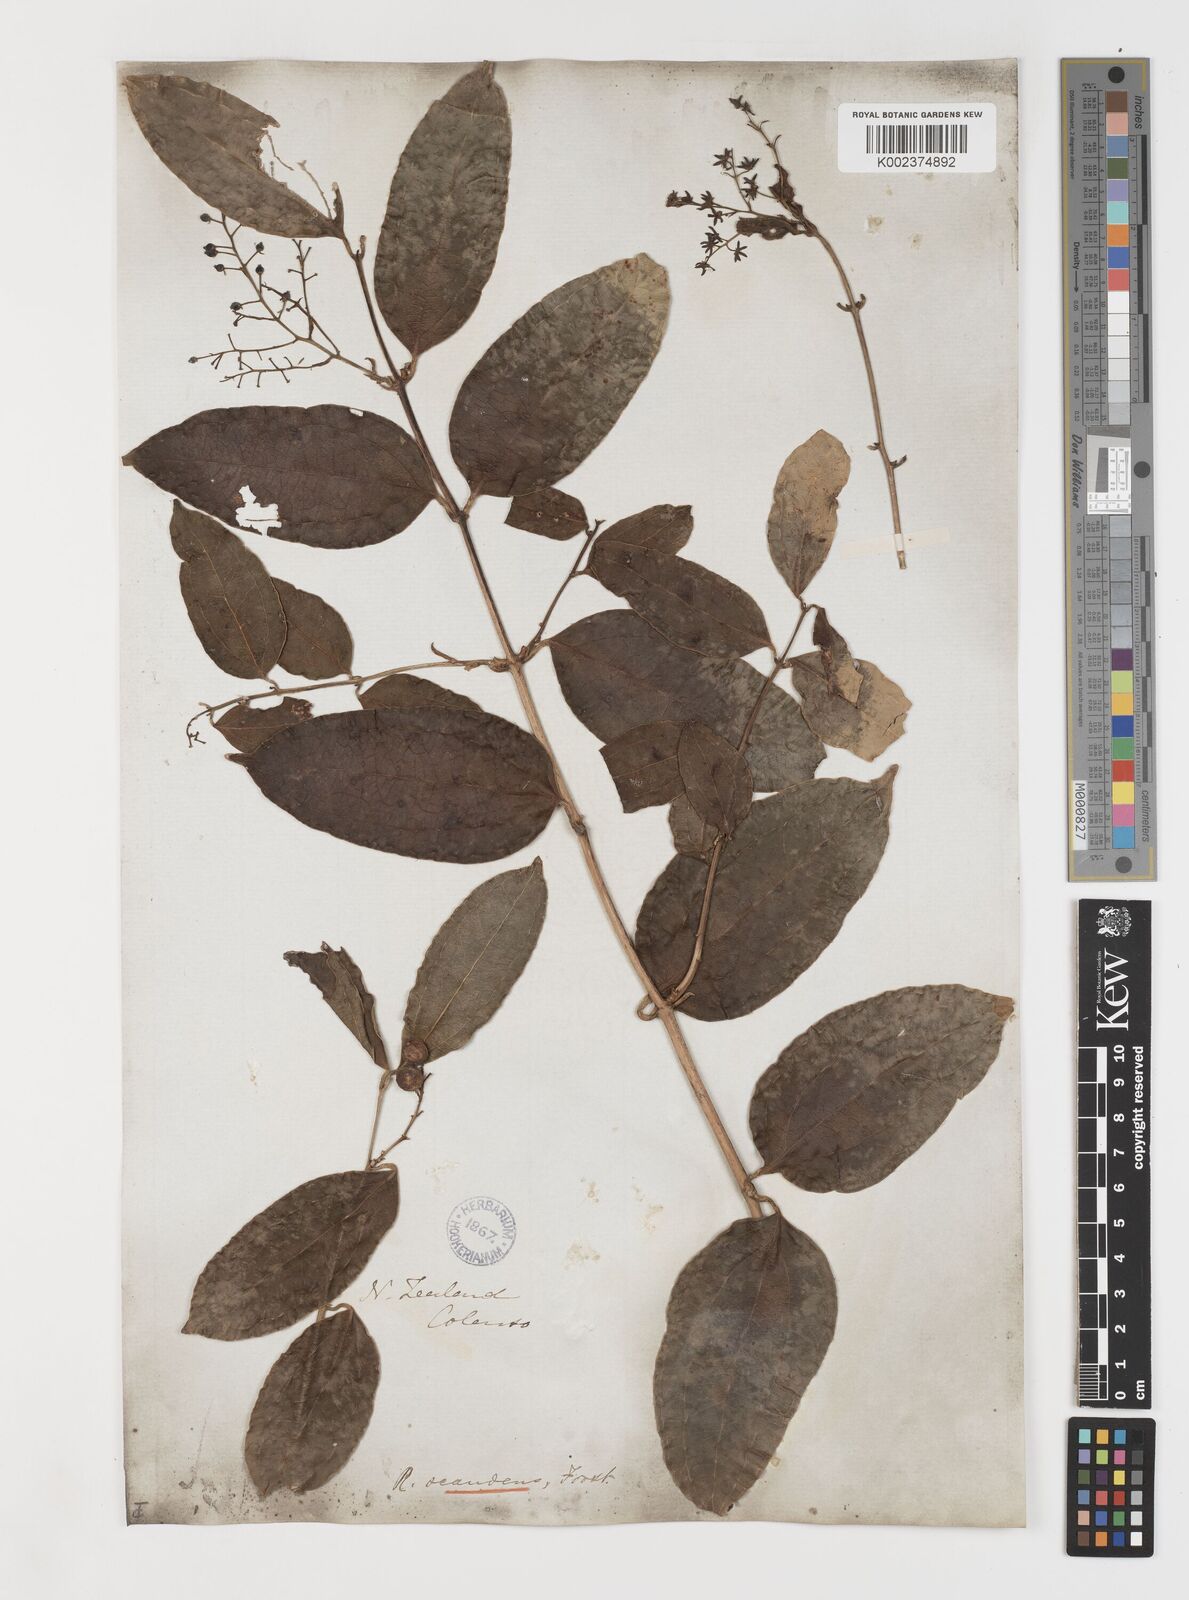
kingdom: Plantae
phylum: Tracheophyta
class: Liliopsida
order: Liliales
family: Ripogonaceae
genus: Ripogonum
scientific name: Ripogonum scandens
